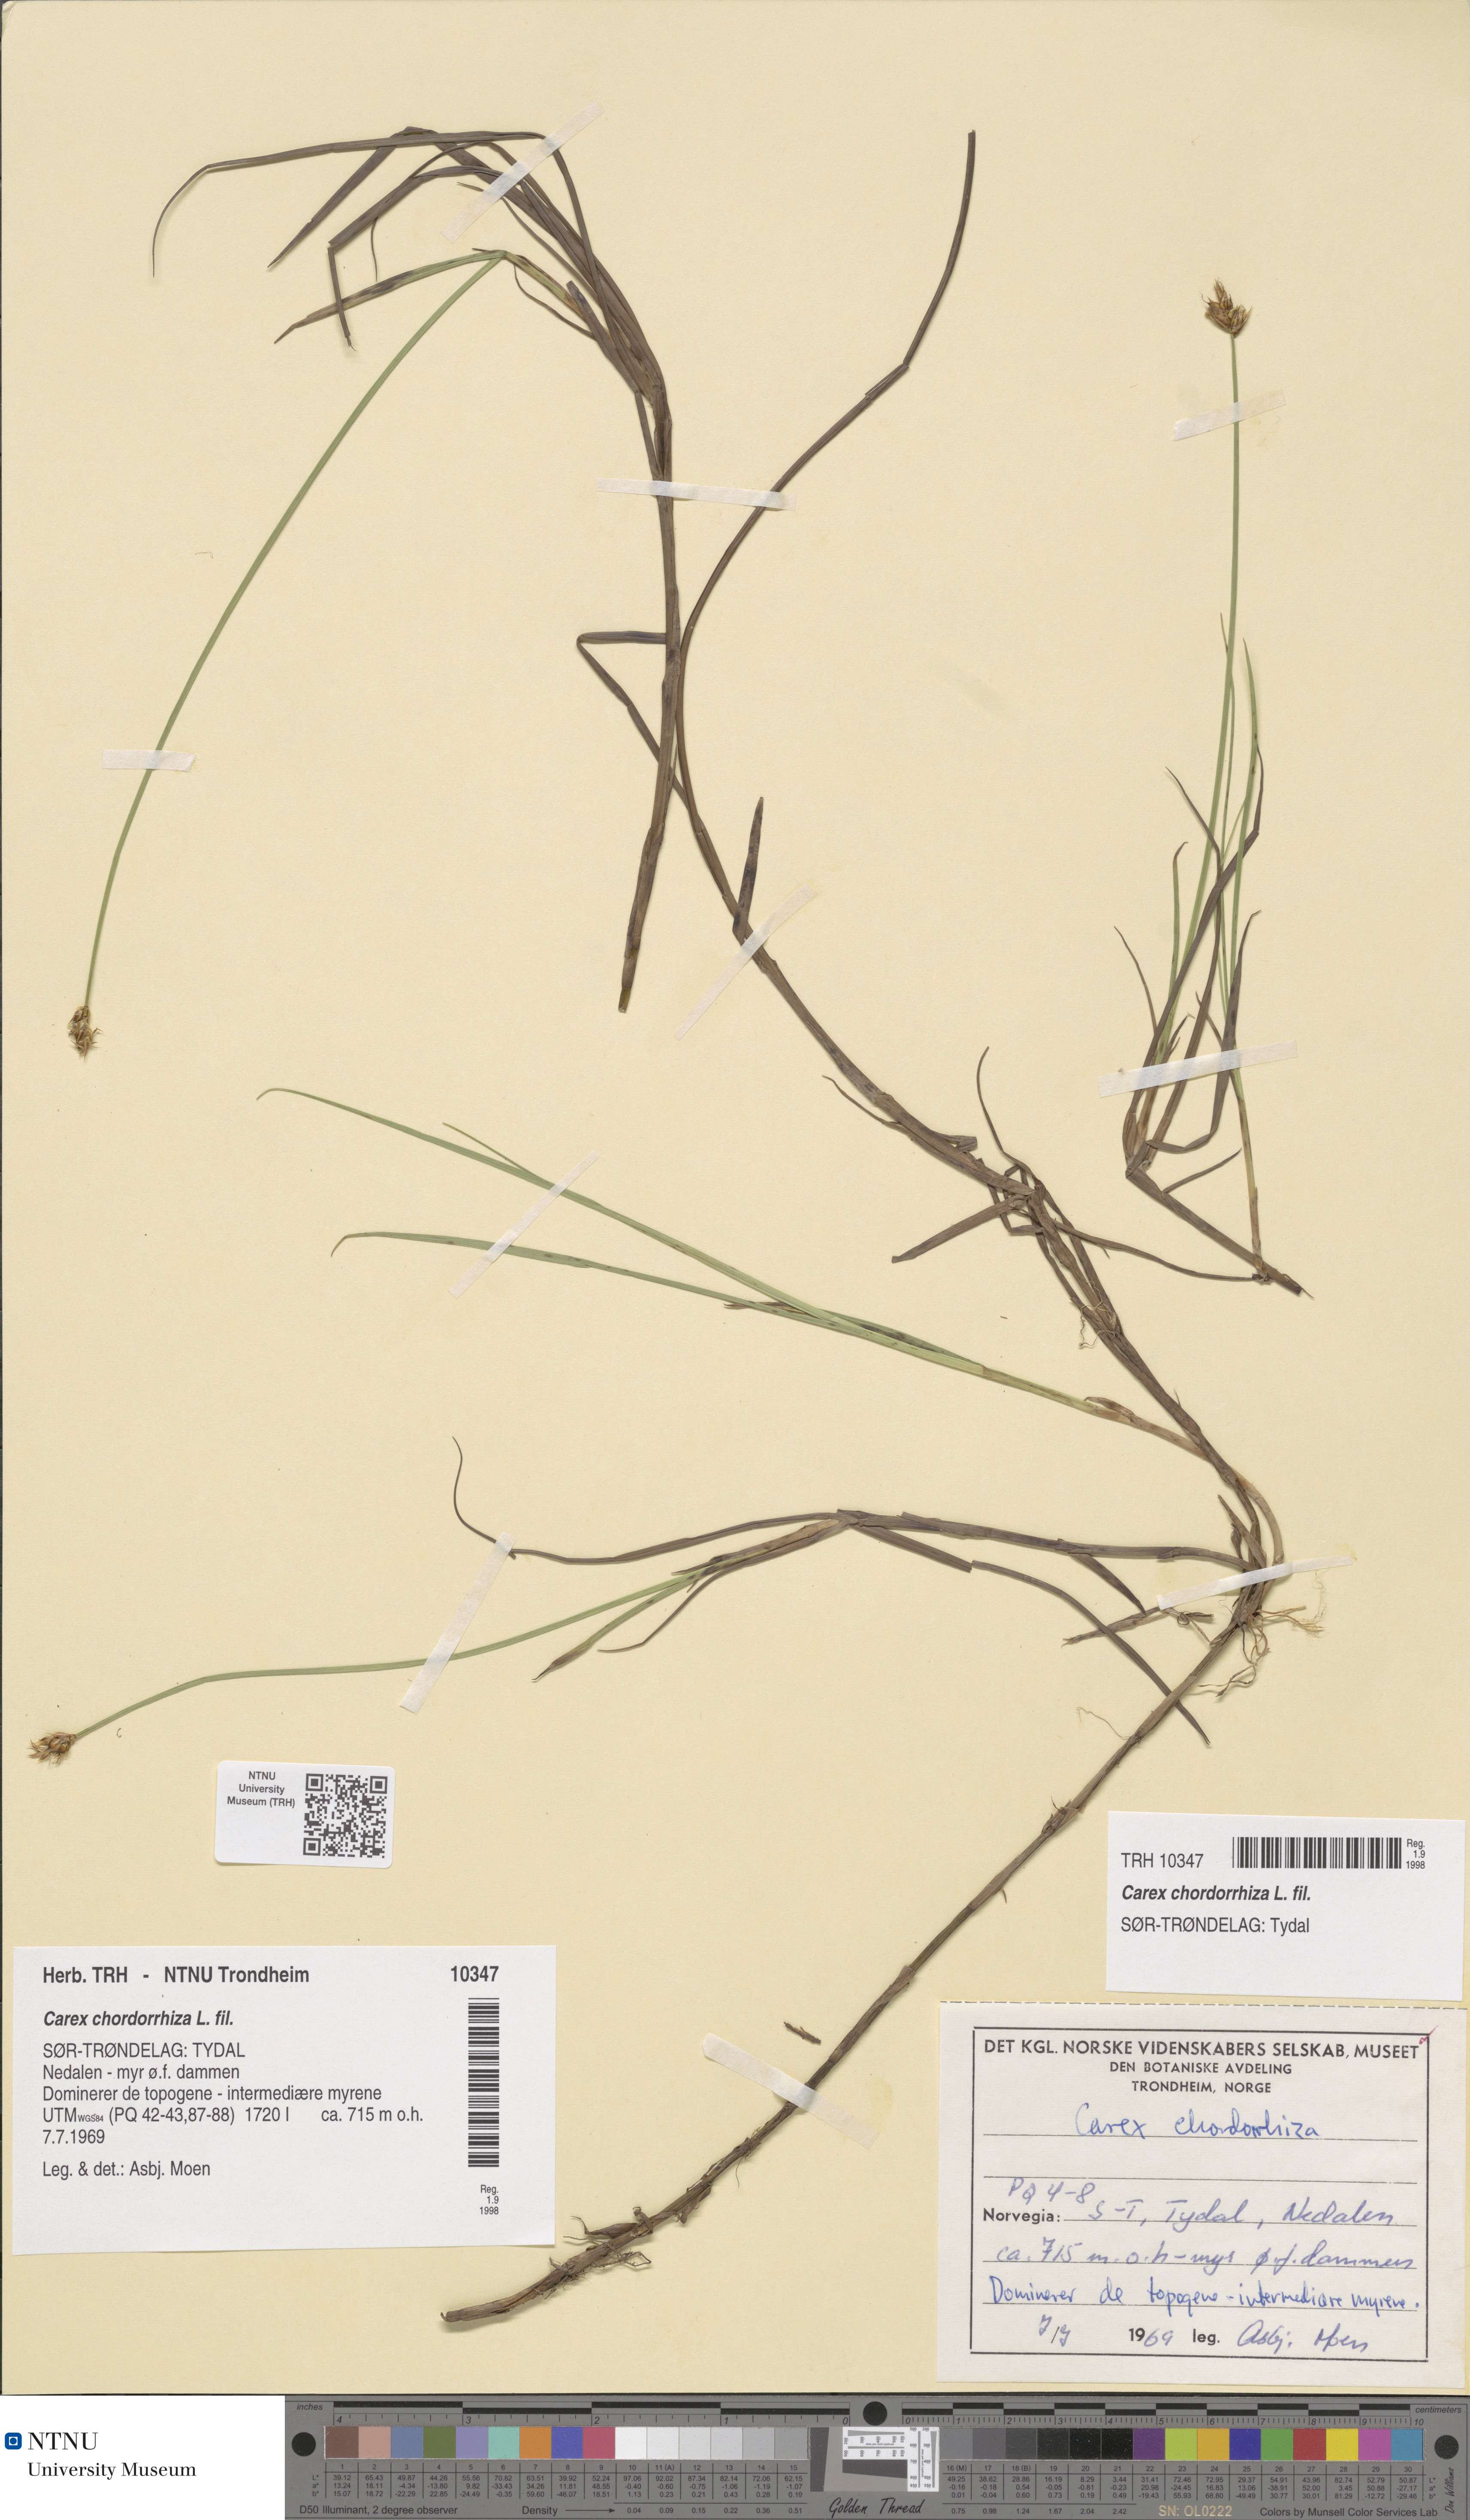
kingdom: Plantae
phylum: Tracheophyta
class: Liliopsida
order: Poales
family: Cyperaceae
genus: Carex
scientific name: Carex chordorrhiza
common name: String sedge
